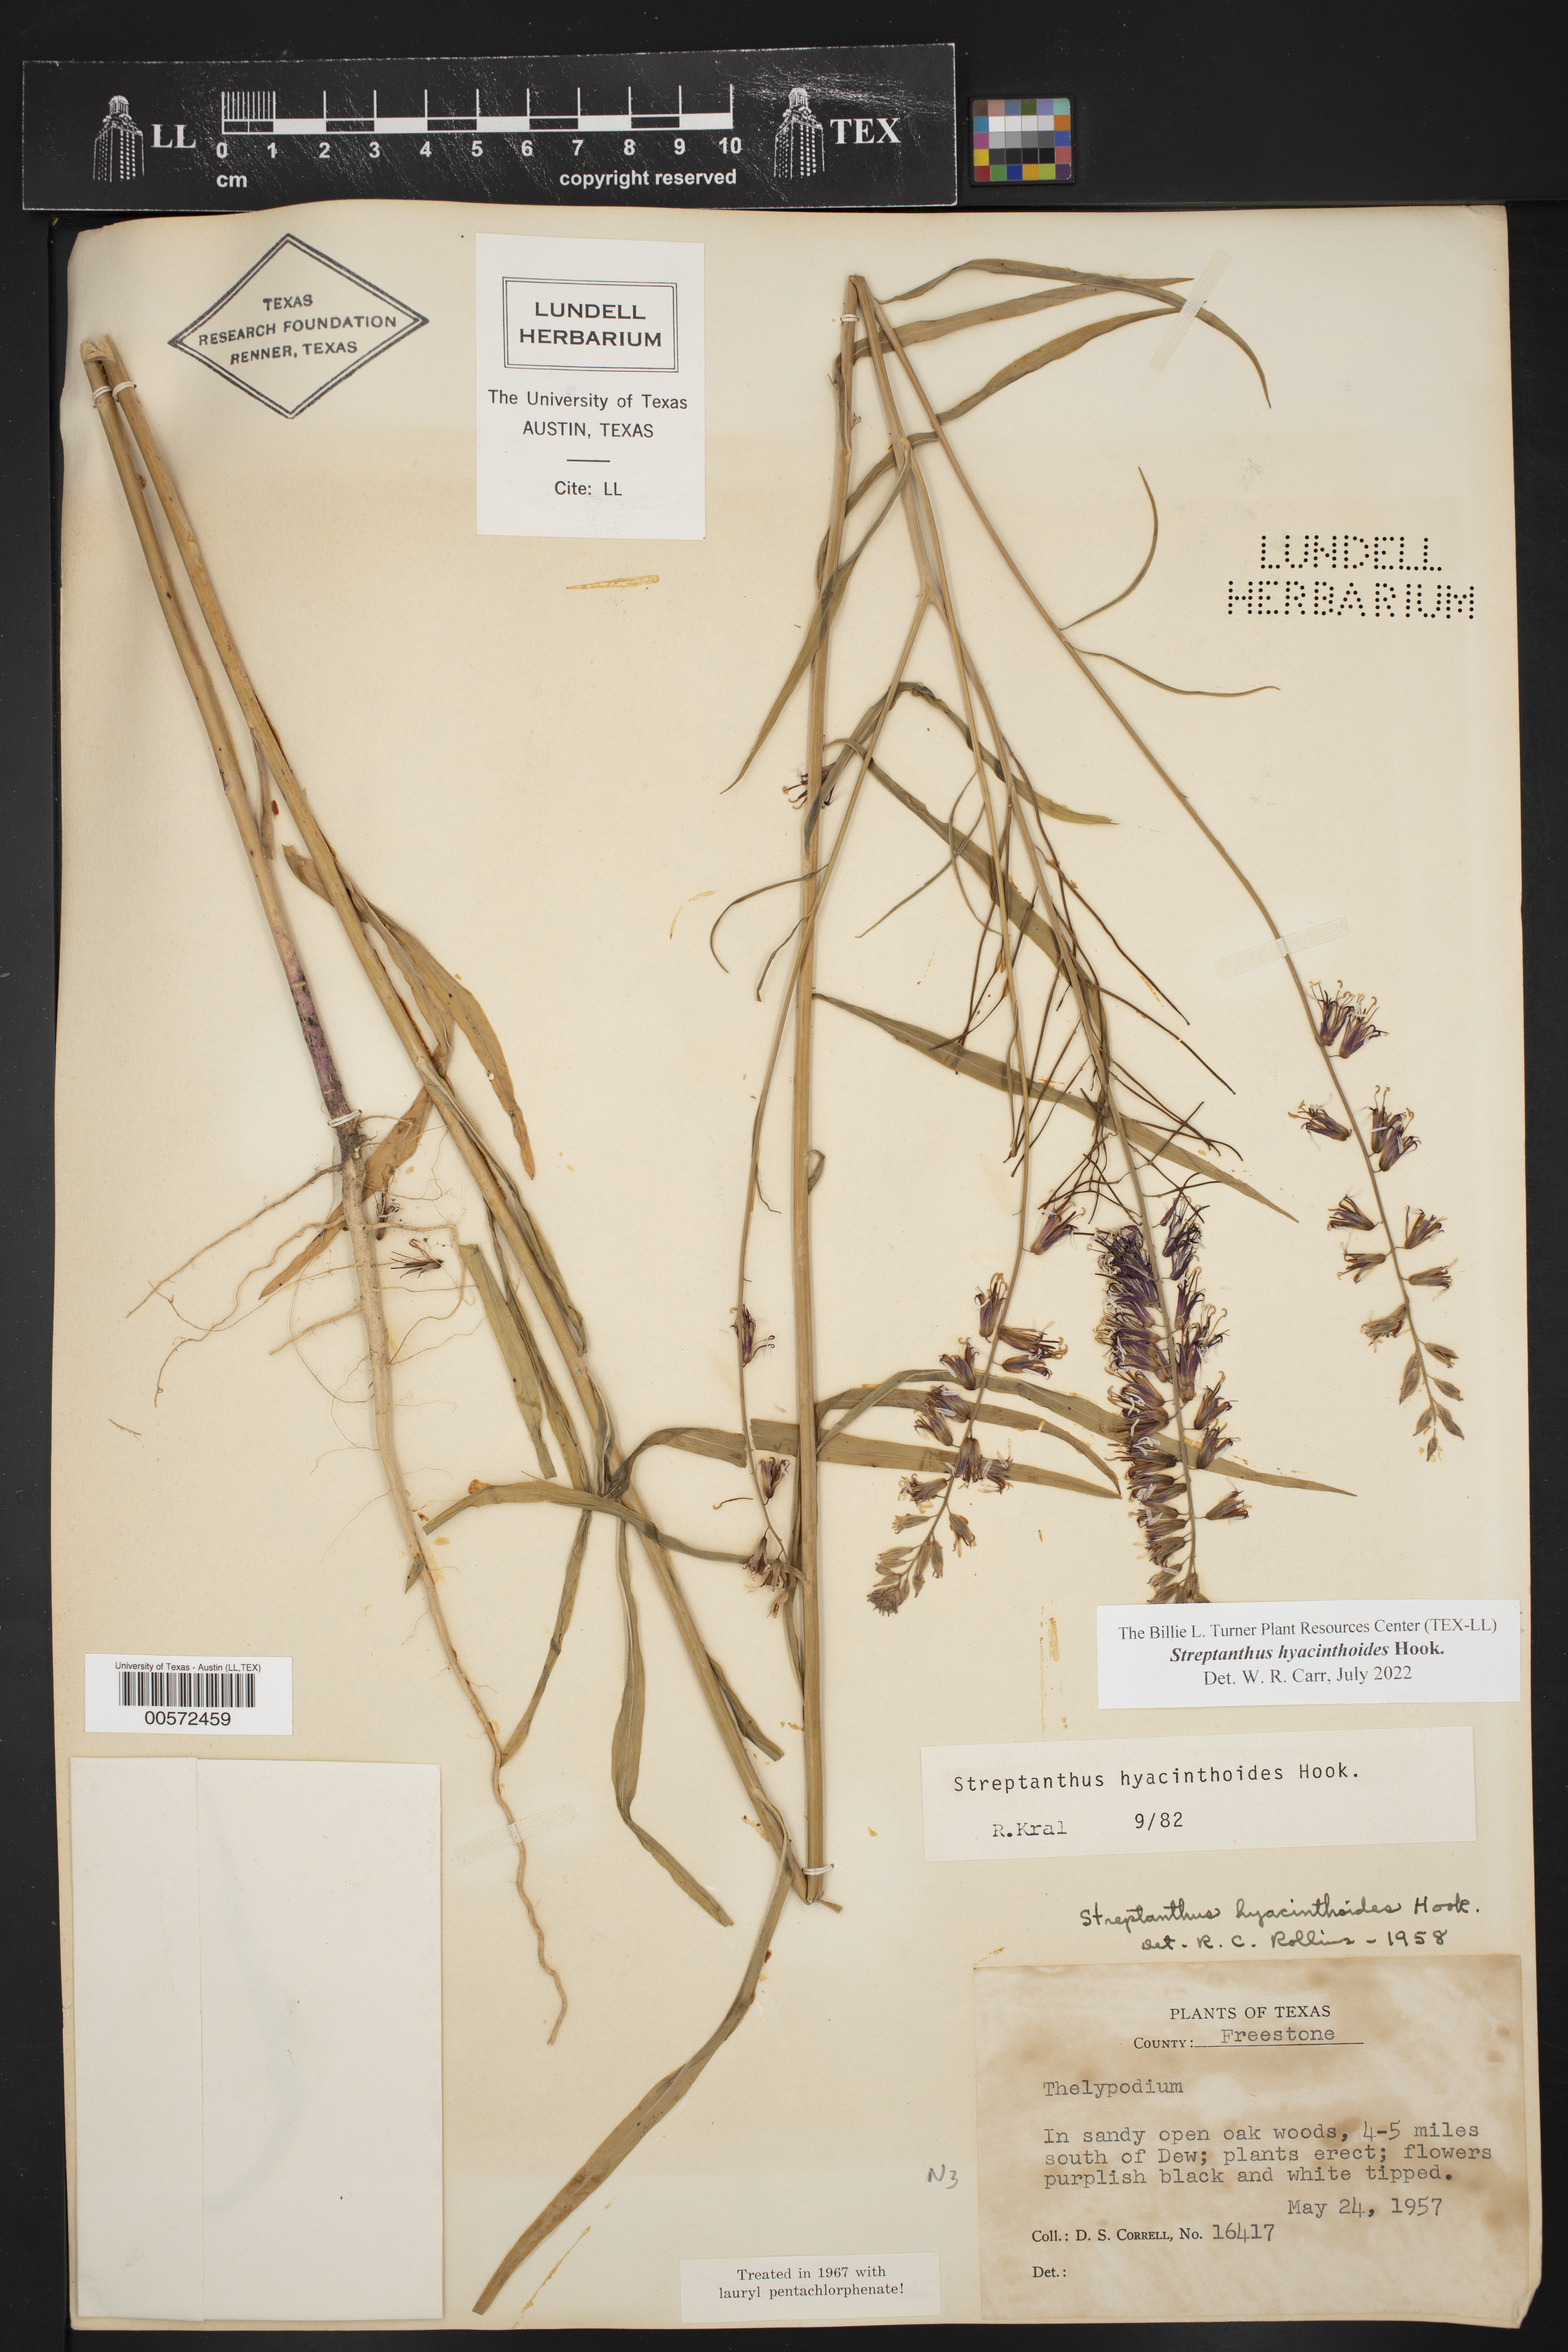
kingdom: Plantae
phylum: Tracheophyta
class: Magnoliopsida
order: Brassicales
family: Brassicaceae
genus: Streptanthus
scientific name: Streptanthus hyacinthoides
